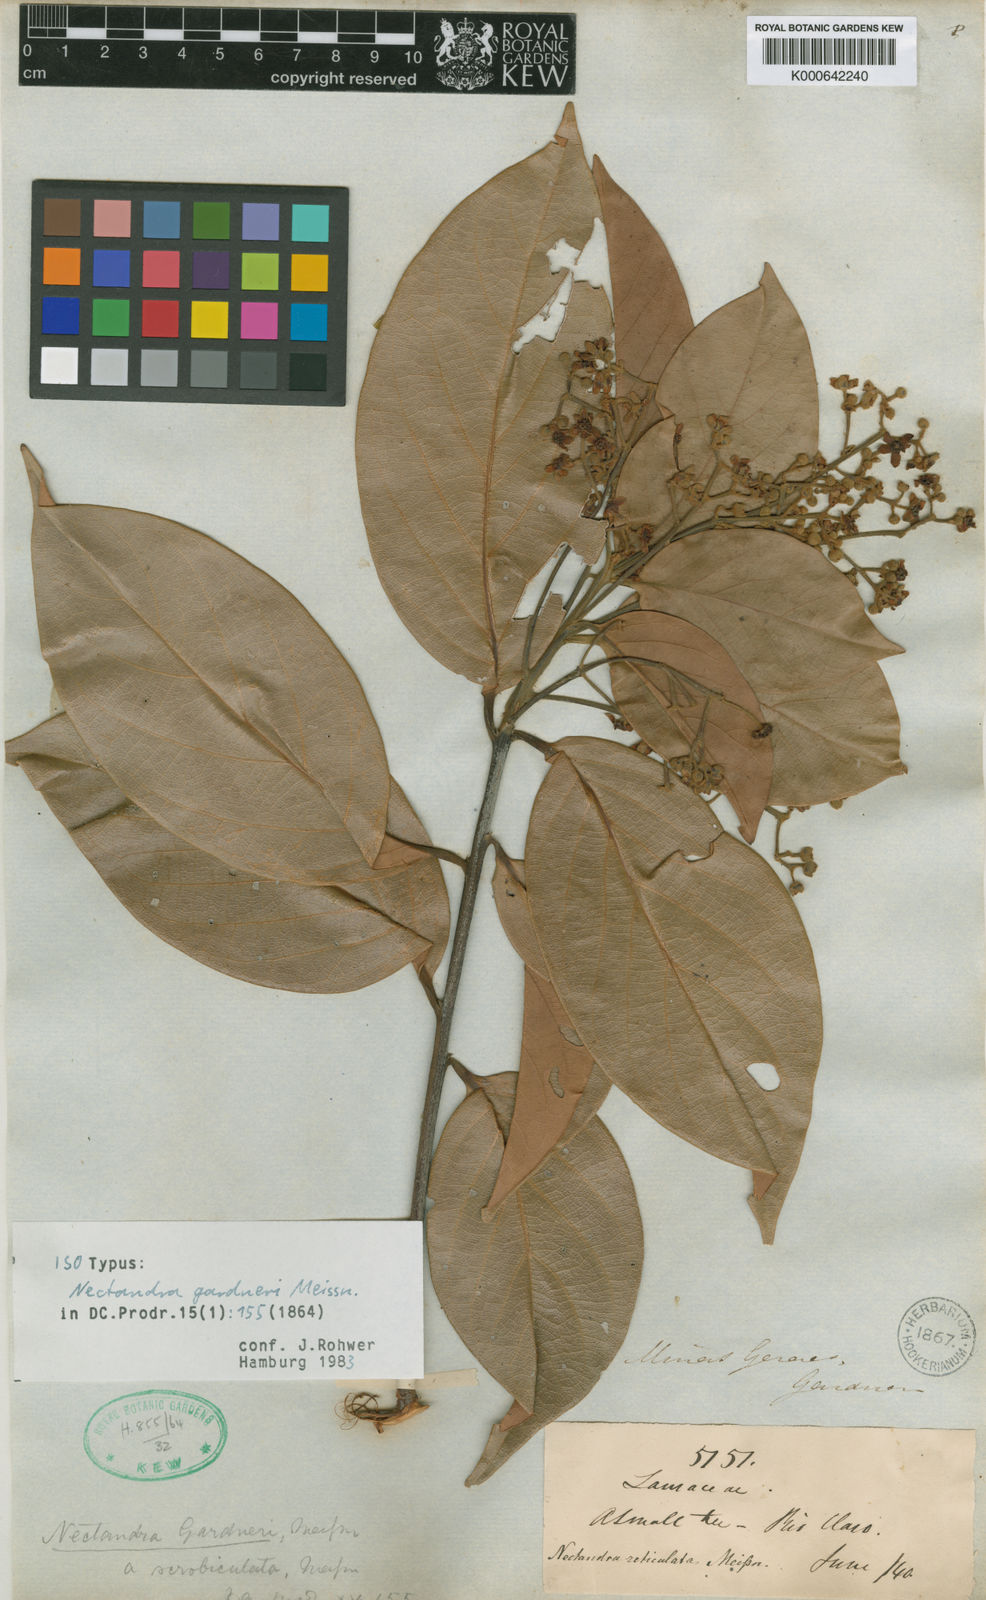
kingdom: Plantae
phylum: Tracheophyta
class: Magnoliopsida
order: Laurales
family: Lauraceae
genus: Nectandra
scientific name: Nectandra gardneri
